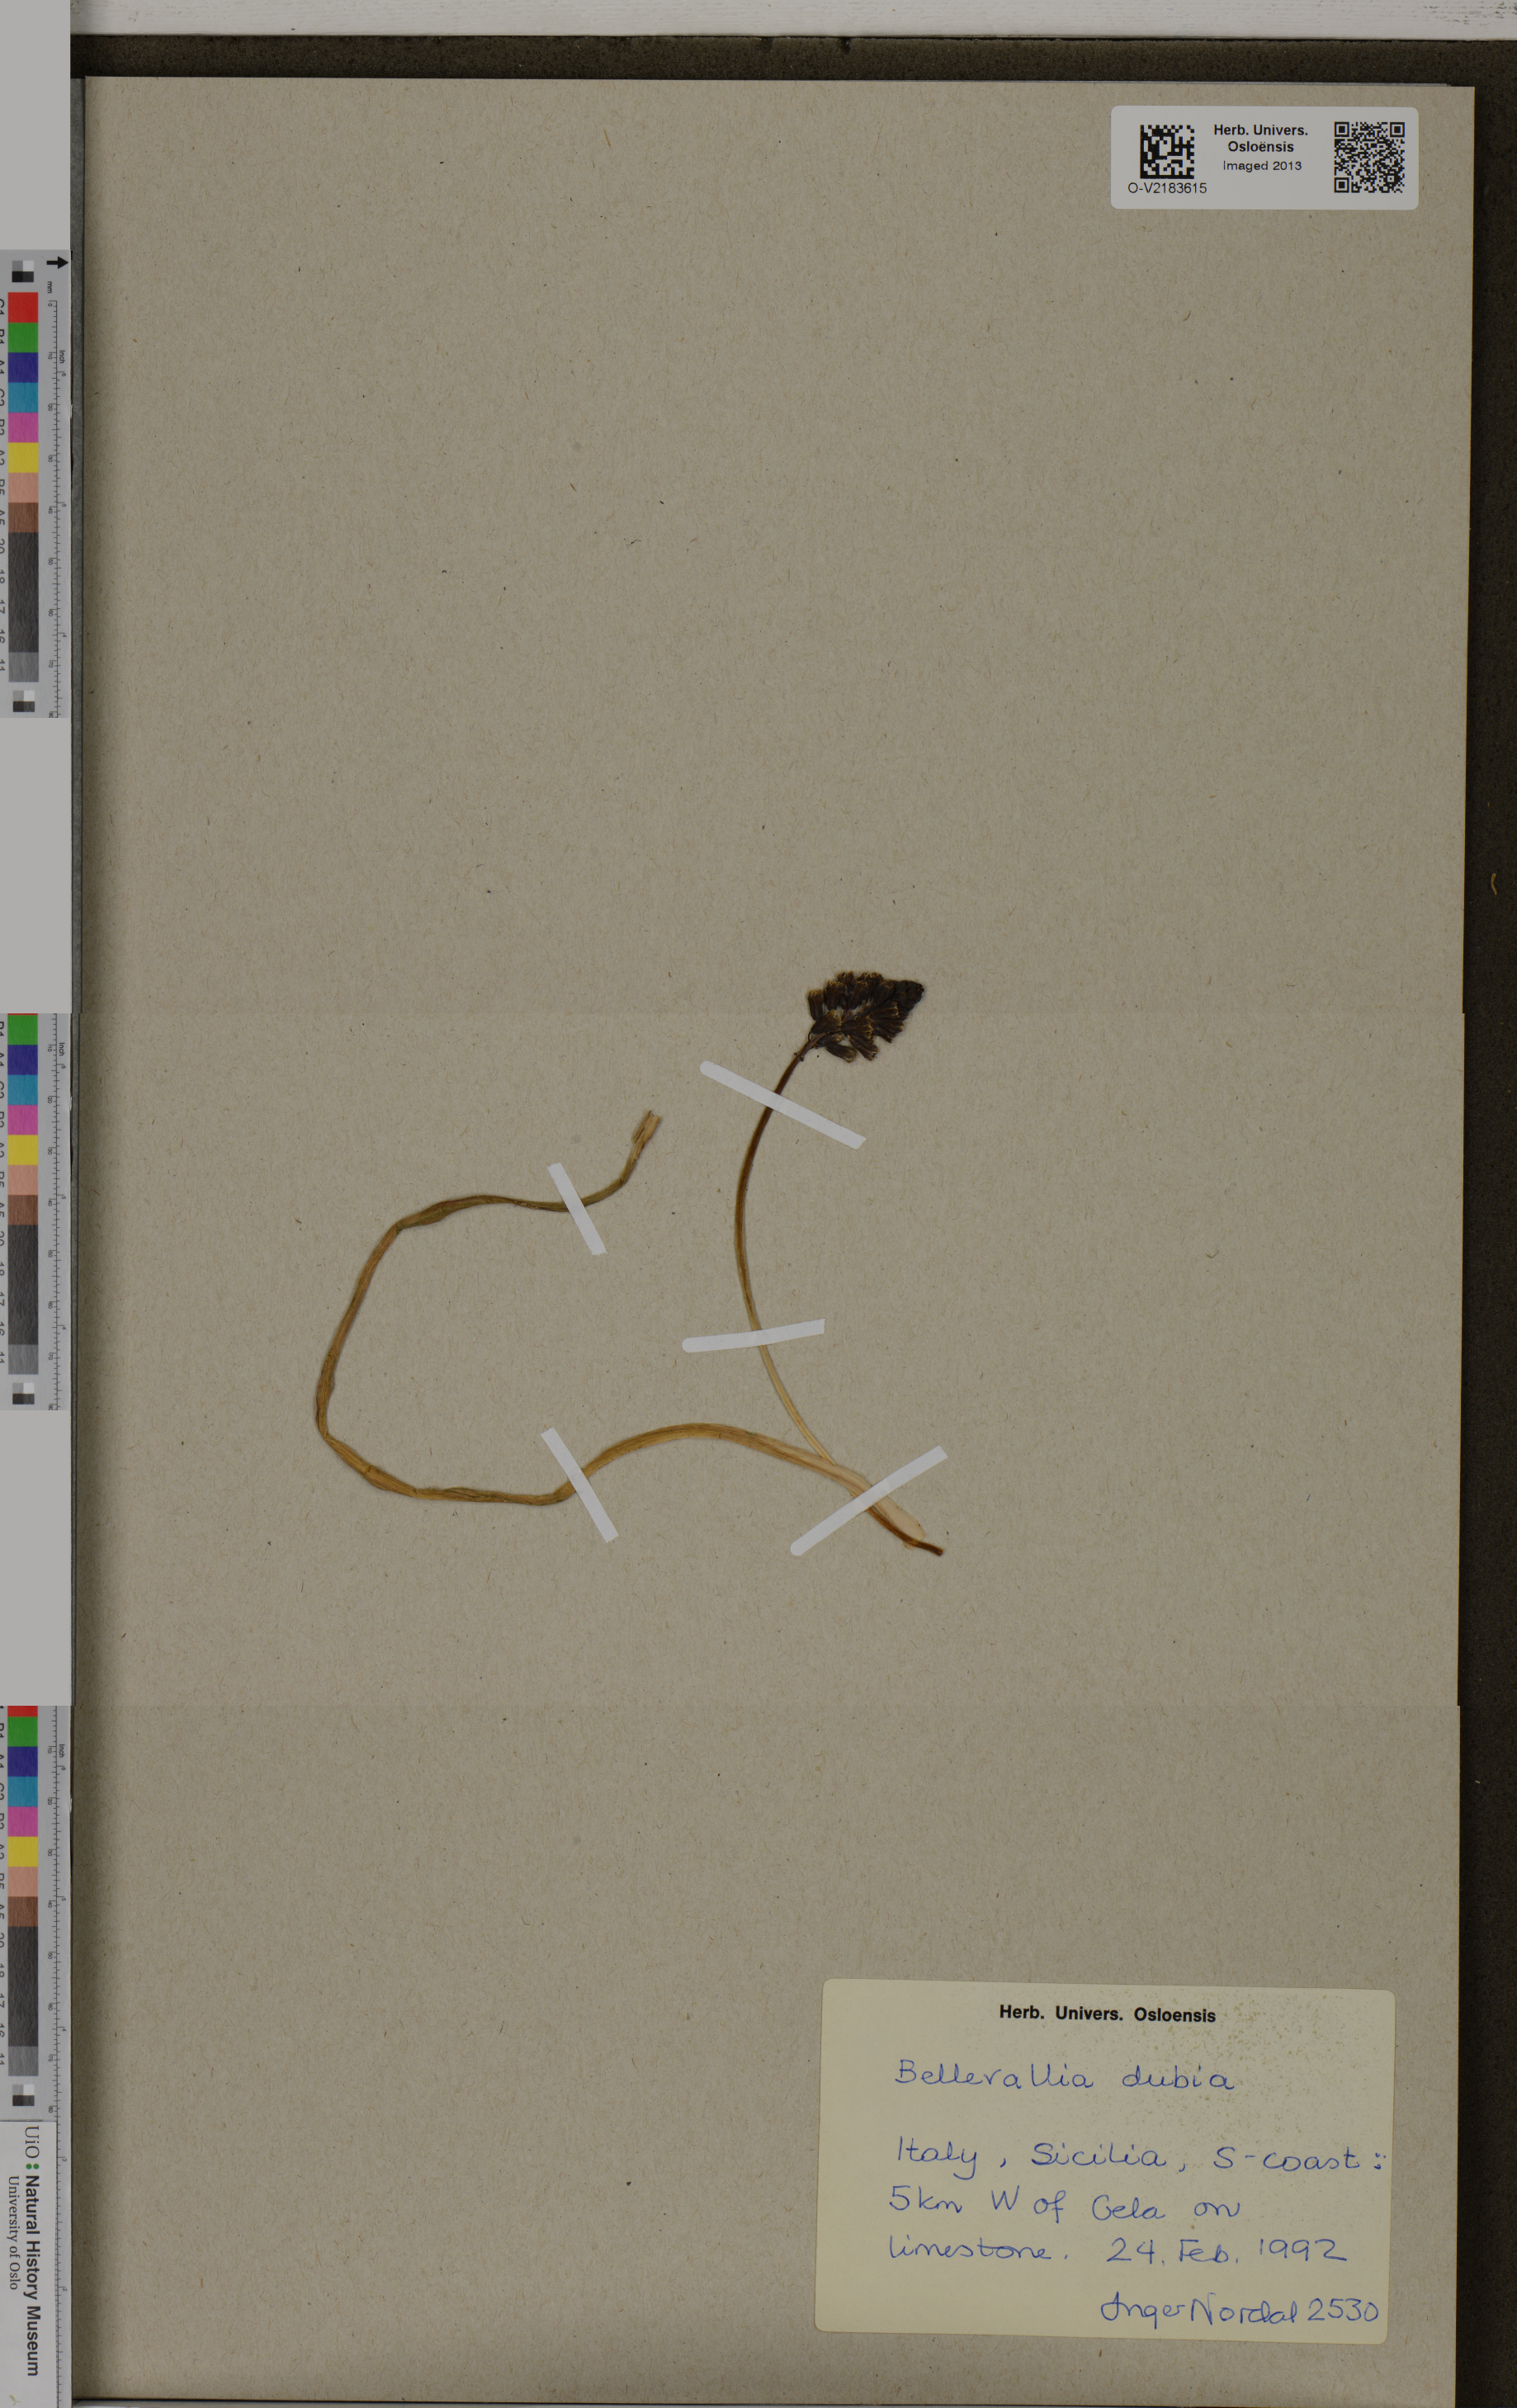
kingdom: Plantae
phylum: Tracheophyta
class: Liliopsida
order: Asparagales
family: Asparagaceae
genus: Bellevalia
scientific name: Bellevalia dubia
